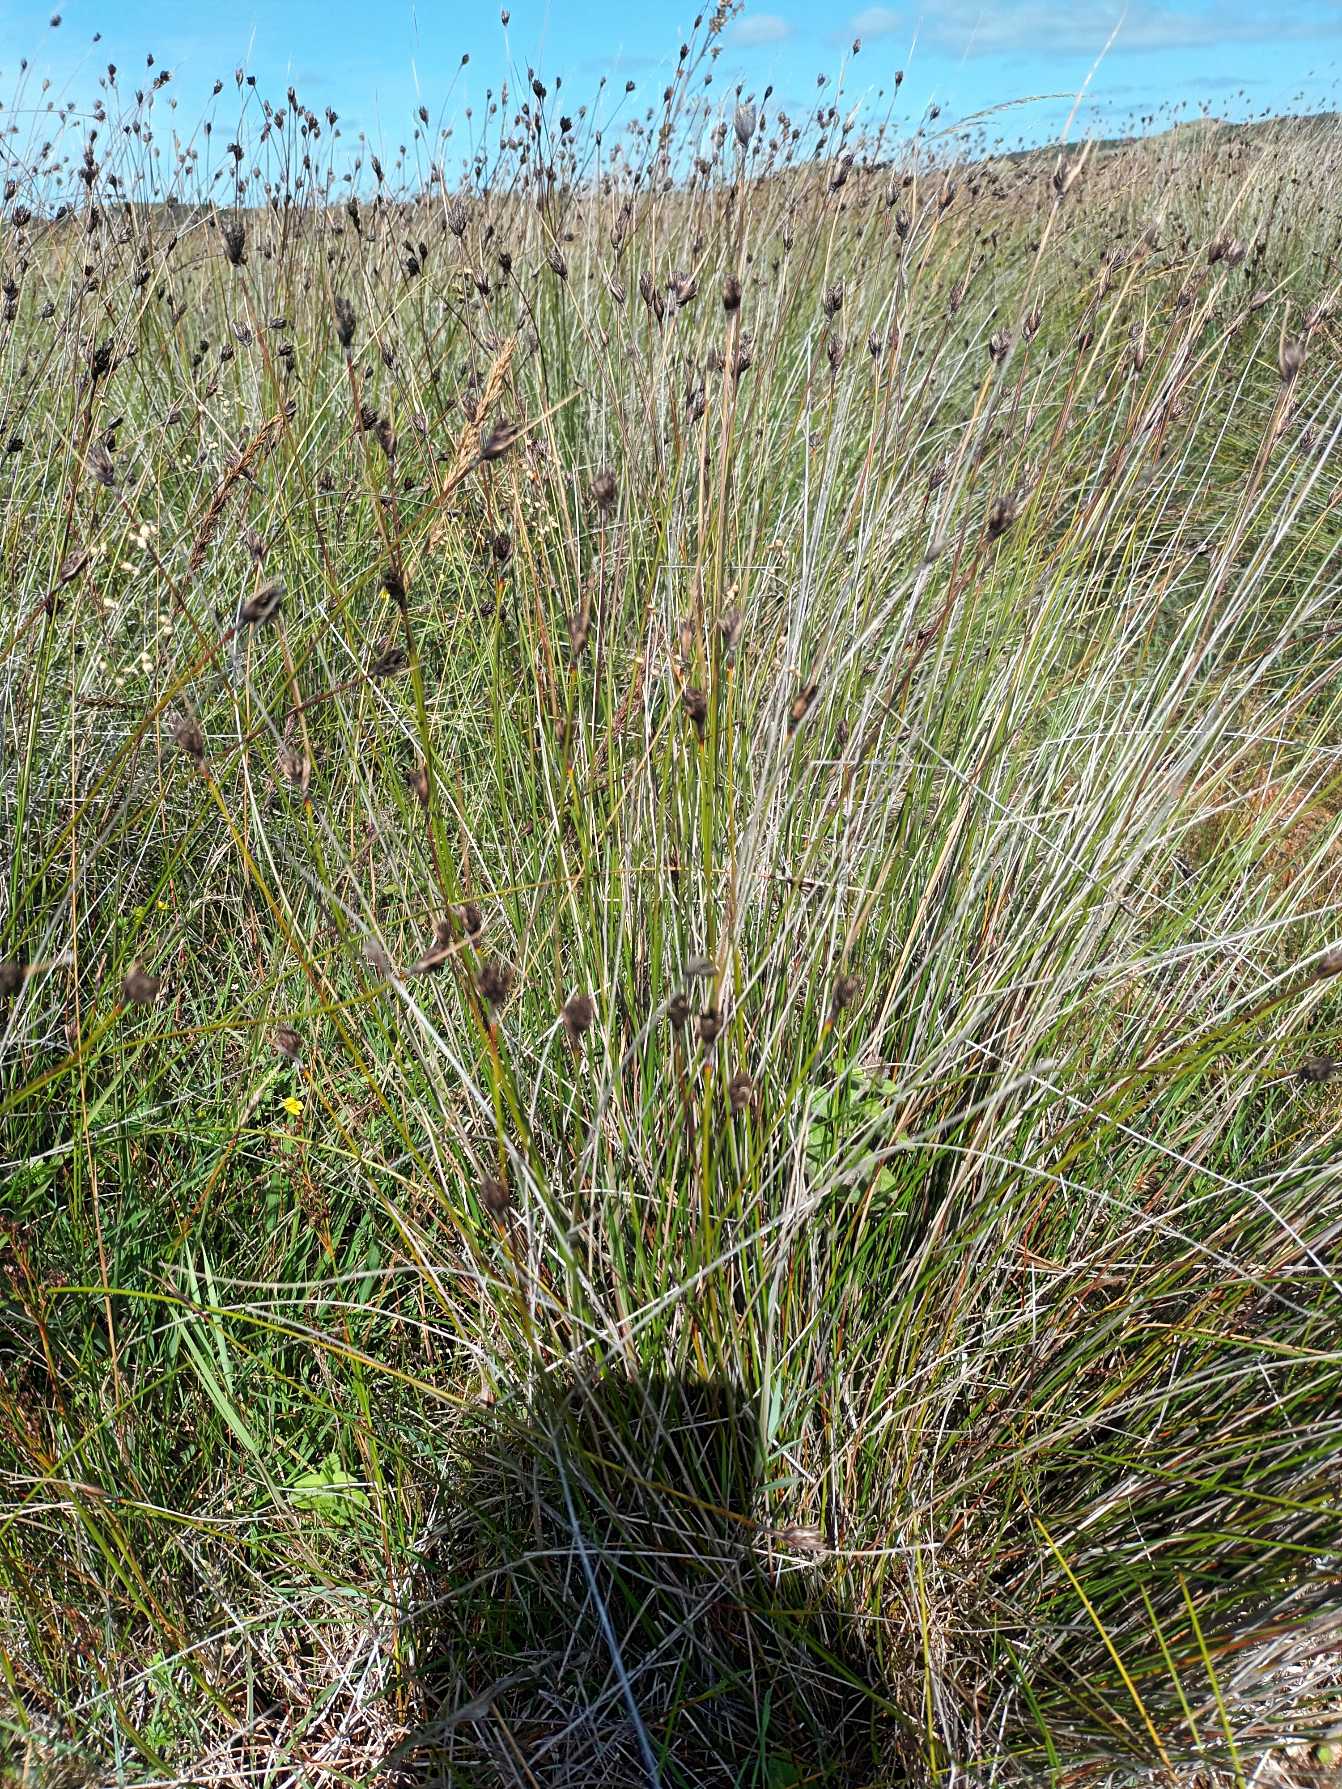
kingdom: Plantae
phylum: Tracheophyta
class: Liliopsida
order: Poales
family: Cyperaceae
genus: Schoenus
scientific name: Schoenus nigricans
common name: Sort skæne
